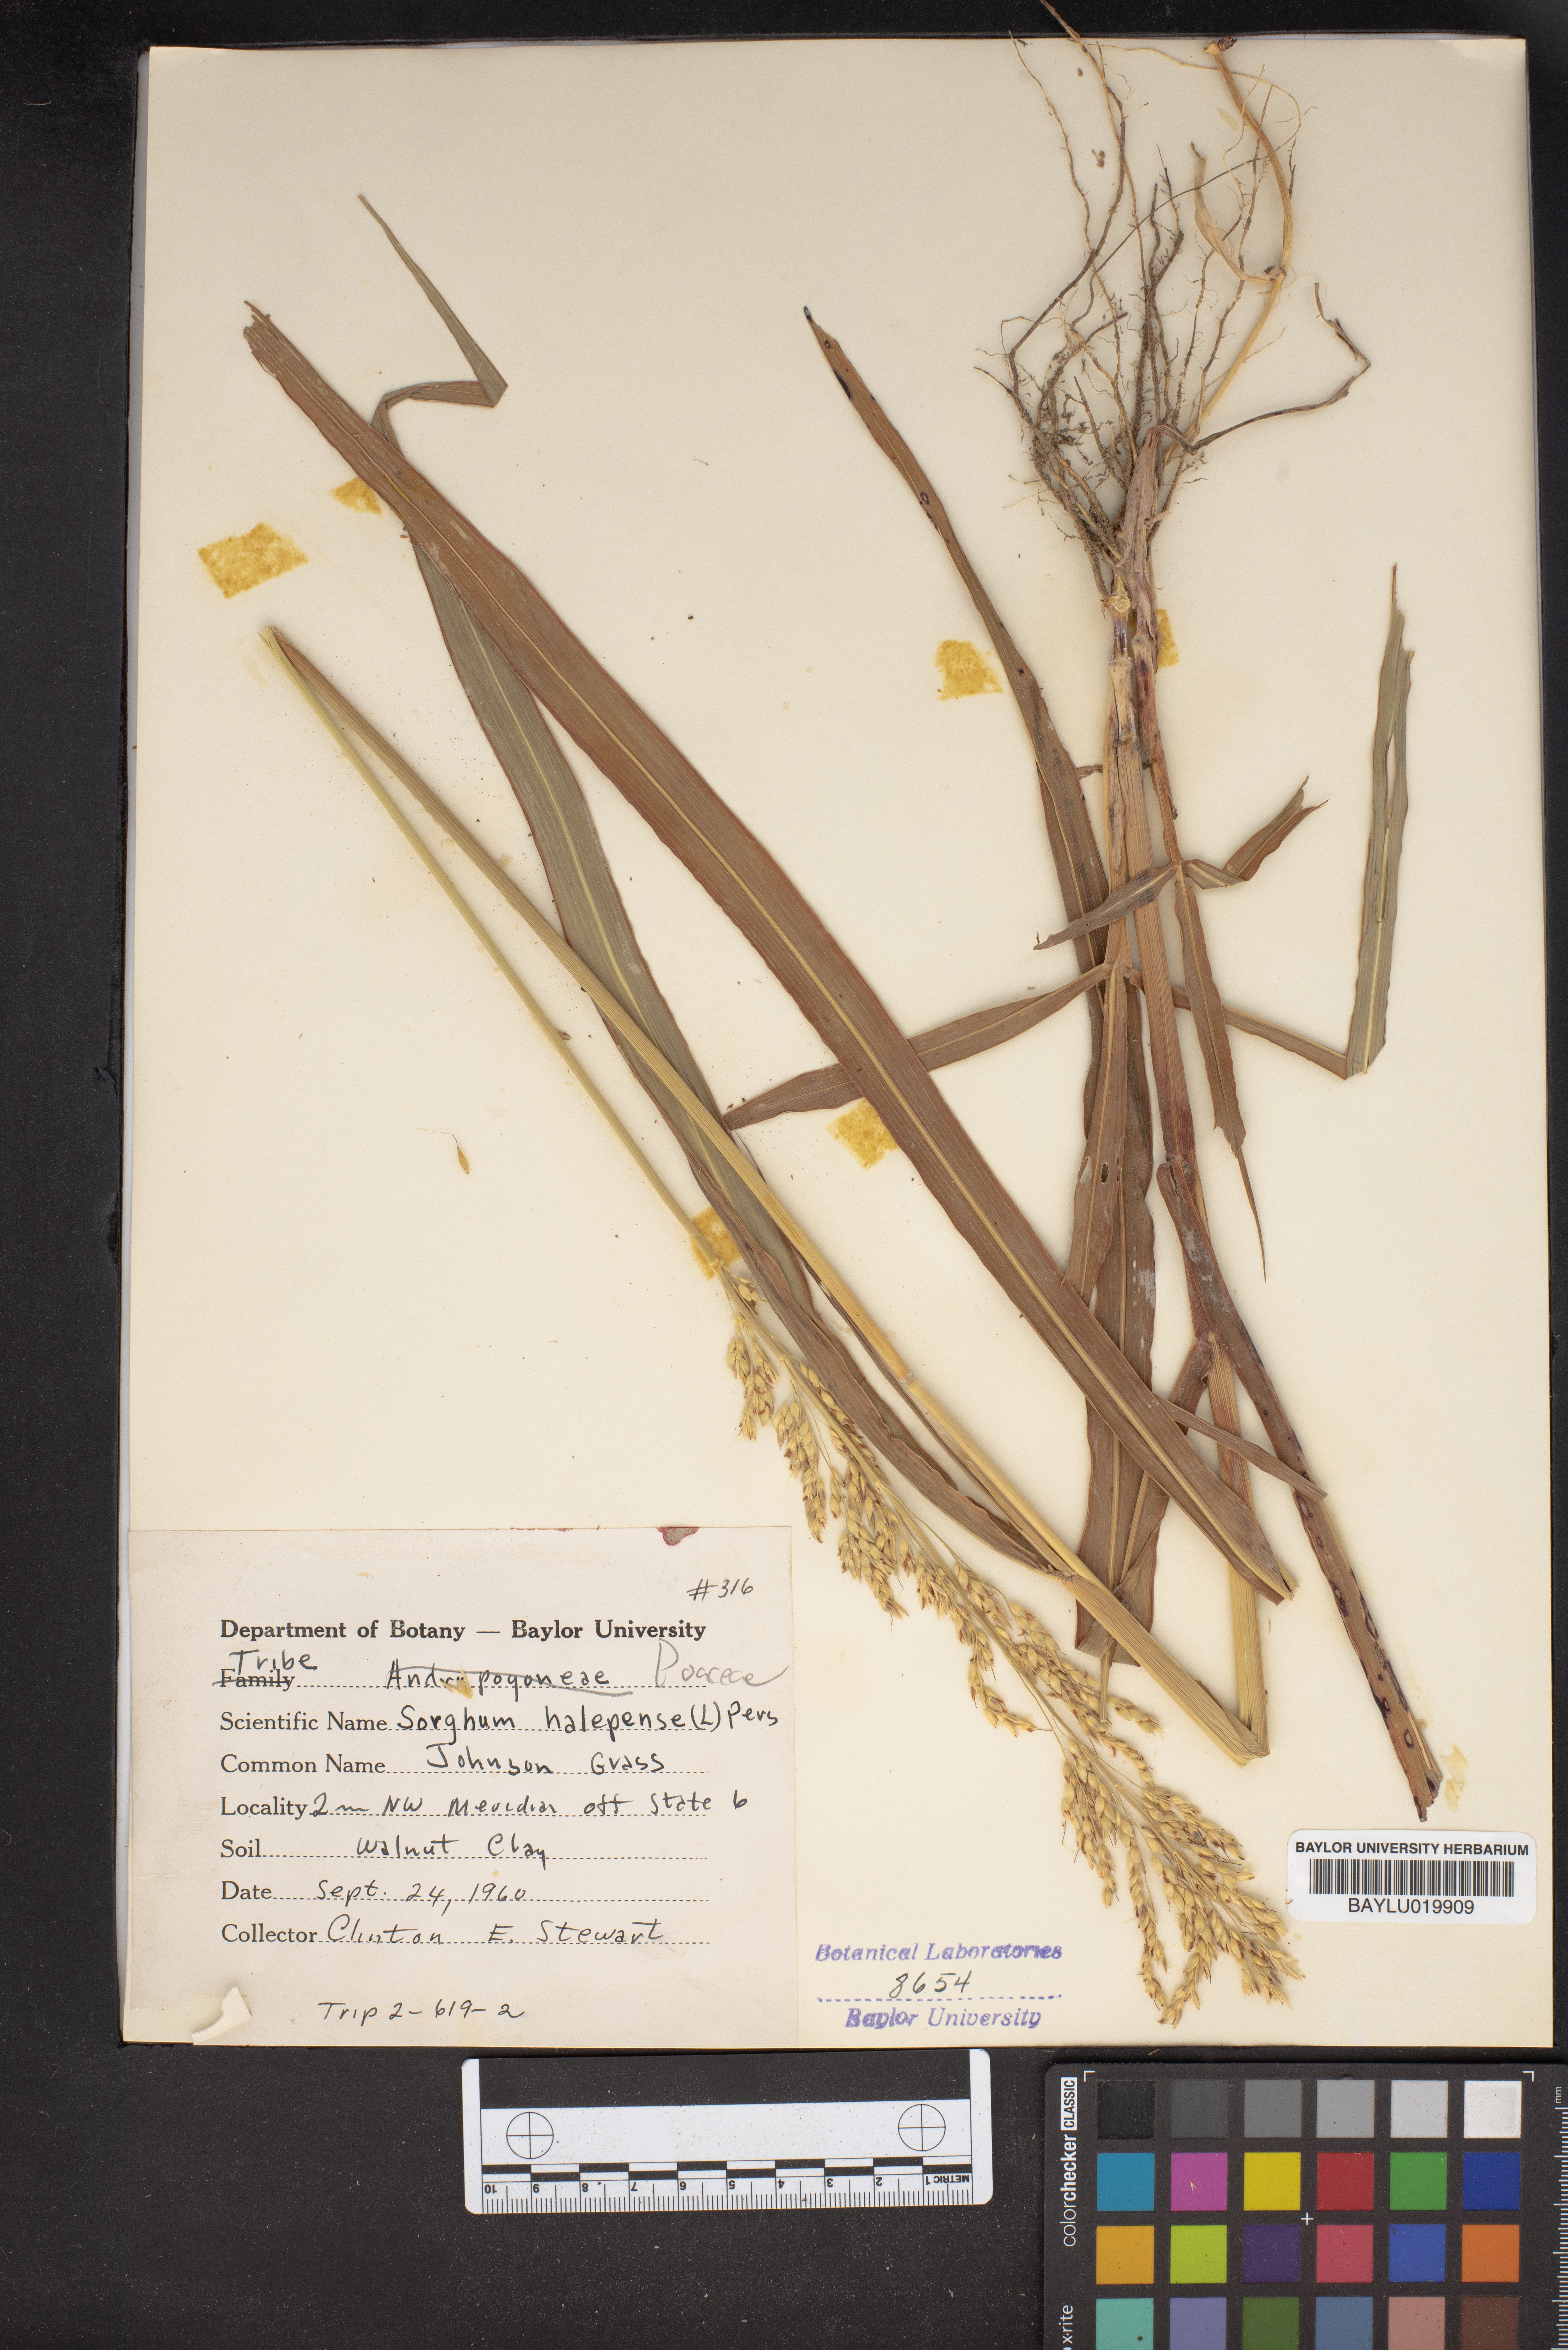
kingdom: Plantae
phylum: Tracheophyta
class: Liliopsida
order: Poales
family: Poaceae
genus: Sorghum
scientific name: Sorghum halepense
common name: Johnson-grass
